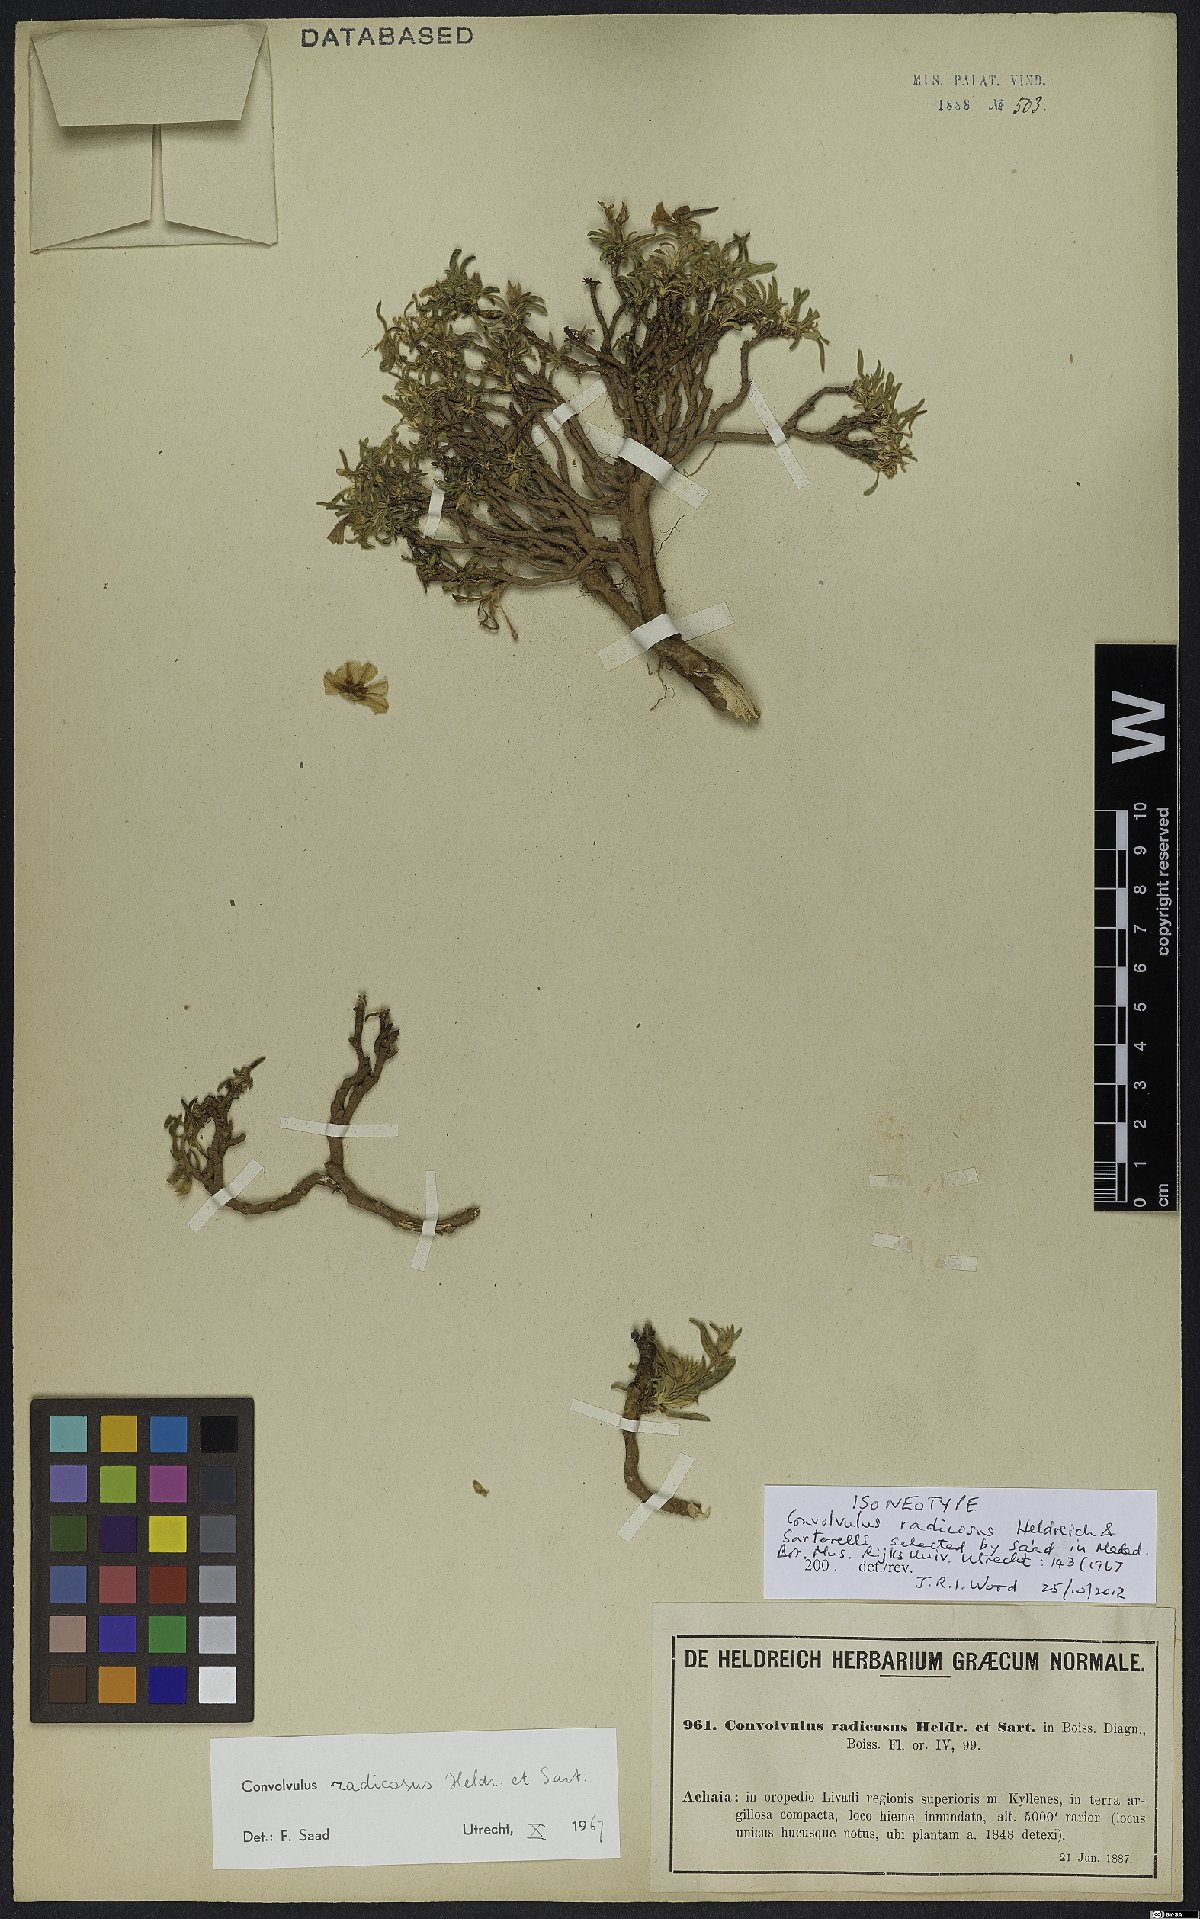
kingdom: Plantae
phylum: Tracheophyta
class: Magnoliopsida
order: Solanales
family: Convolvulaceae
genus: Convolvulus
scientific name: Convolvulus libanoticus
